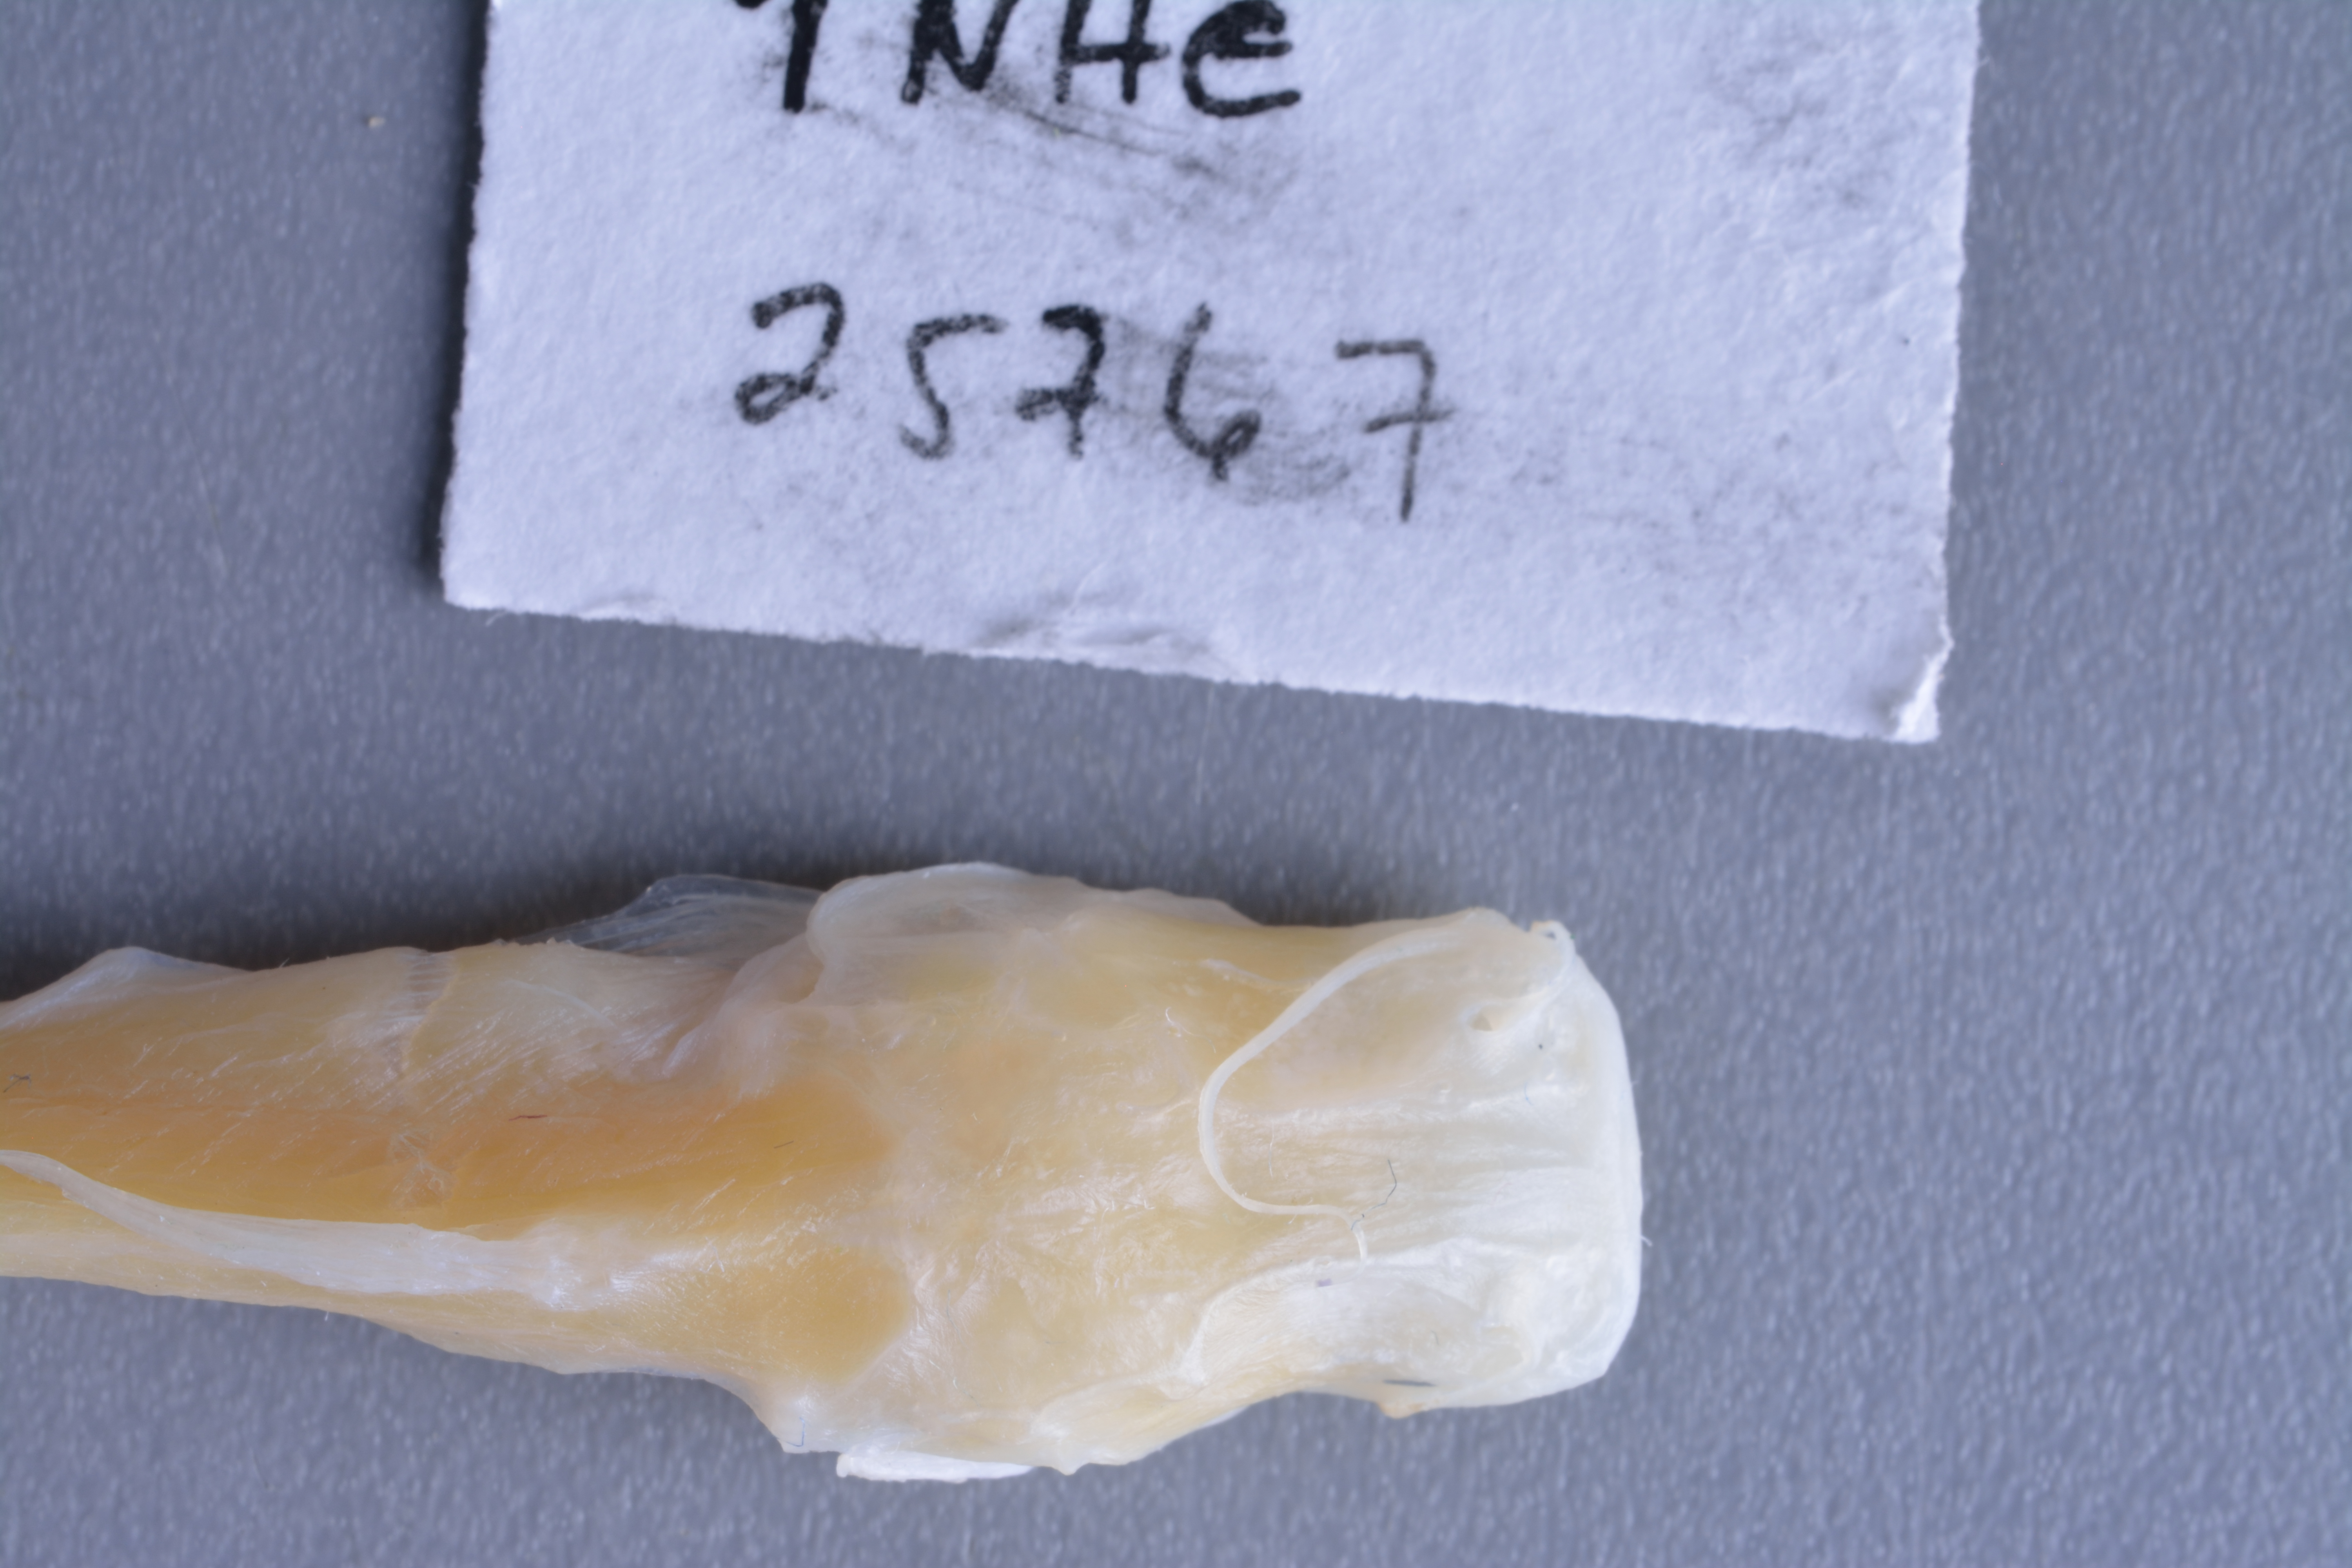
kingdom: Animalia
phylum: Chordata
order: Siluriformes
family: Ictaluridae
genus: Prietella
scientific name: Prietella lundbergi
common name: Phantom blindcat
